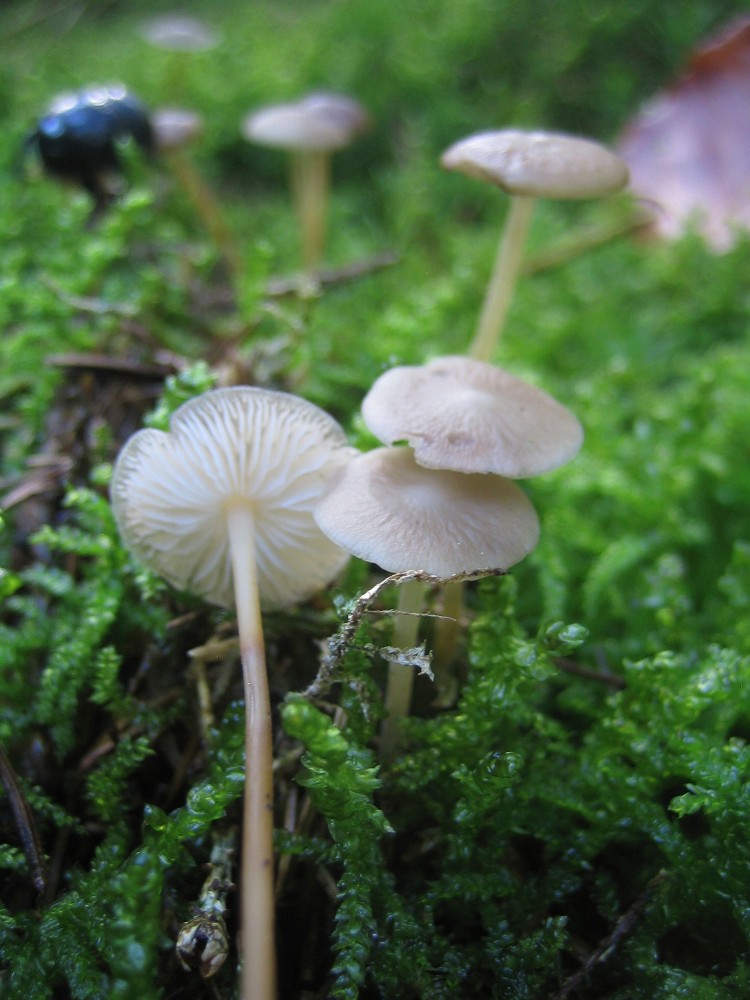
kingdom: Fungi
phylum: Basidiomycota
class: Agaricomycetes
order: Agaricales
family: Physalacriaceae
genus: Strobilurus
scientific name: Strobilurus esculentus
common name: gran-koglehat
